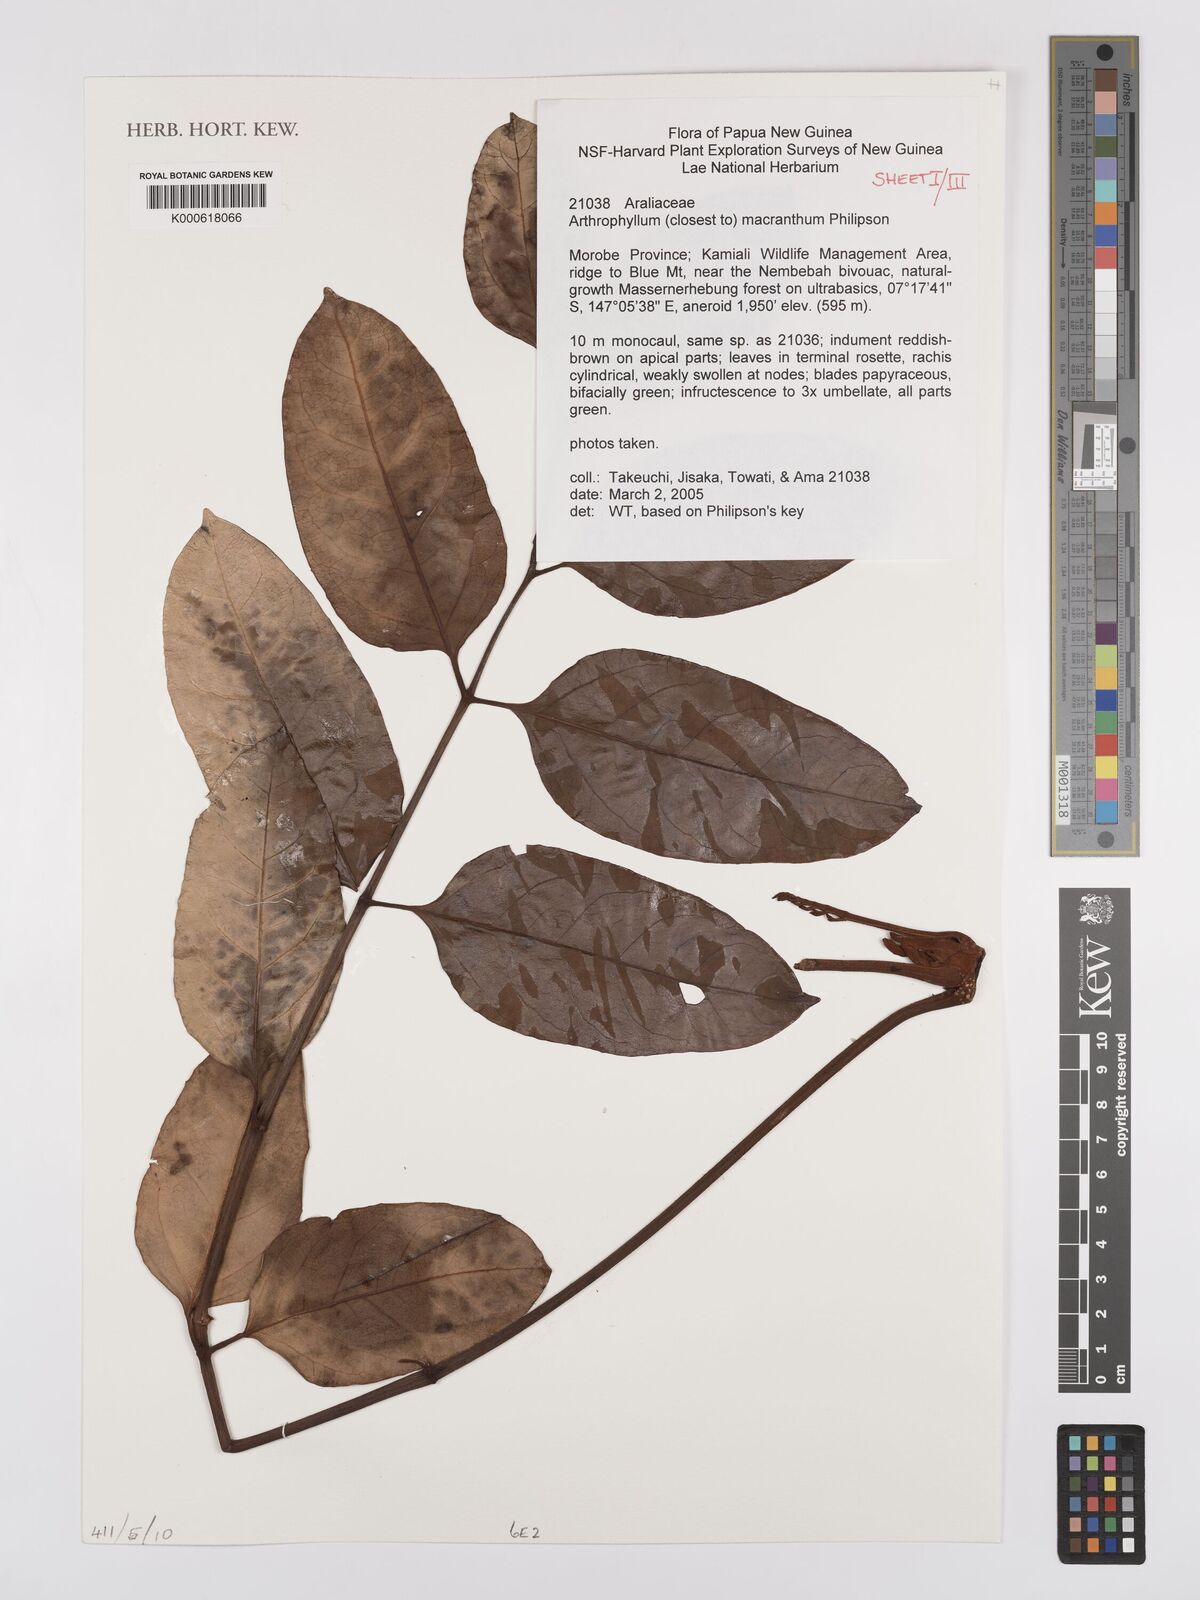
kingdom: Plantae
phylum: Tracheophyta
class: Magnoliopsida
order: Apiales
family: Araliaceae
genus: Polyscias
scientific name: Polyscias macranthum
